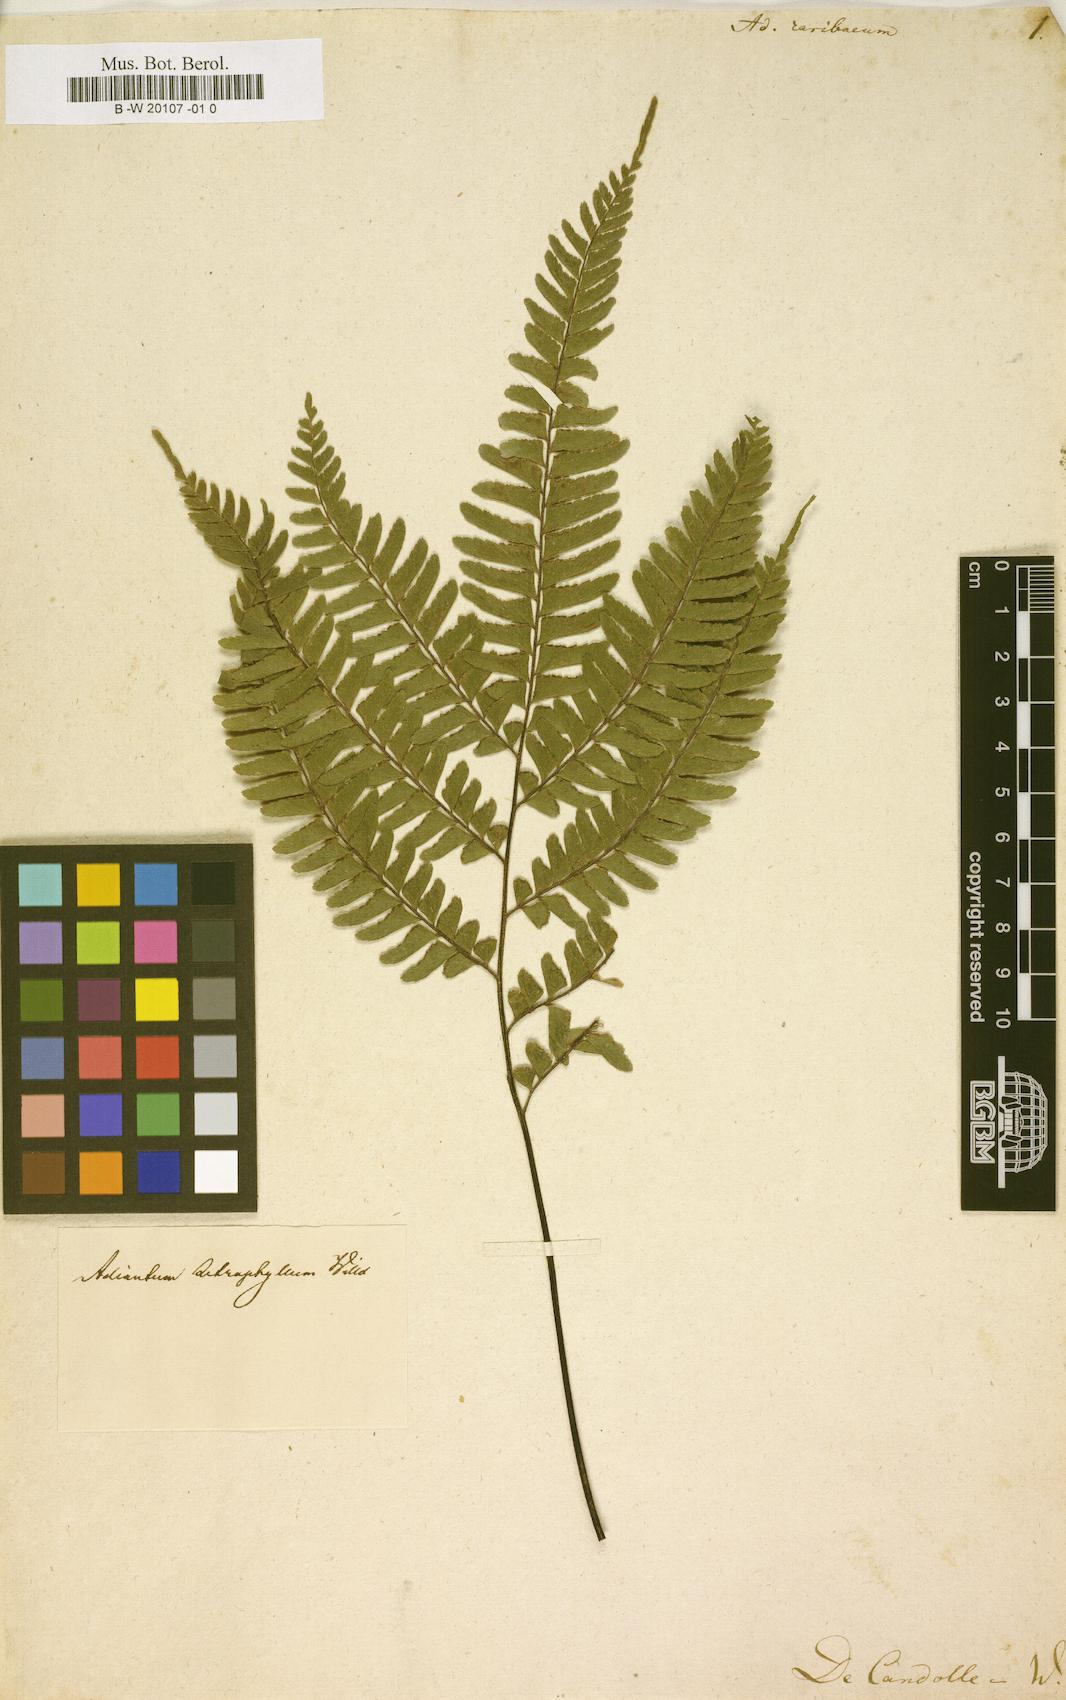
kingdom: Plantae
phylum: Tracheophyta
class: Polypodiopsida
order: Polypodiales
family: Pteridaceae
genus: Adiantum
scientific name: Adiantum
